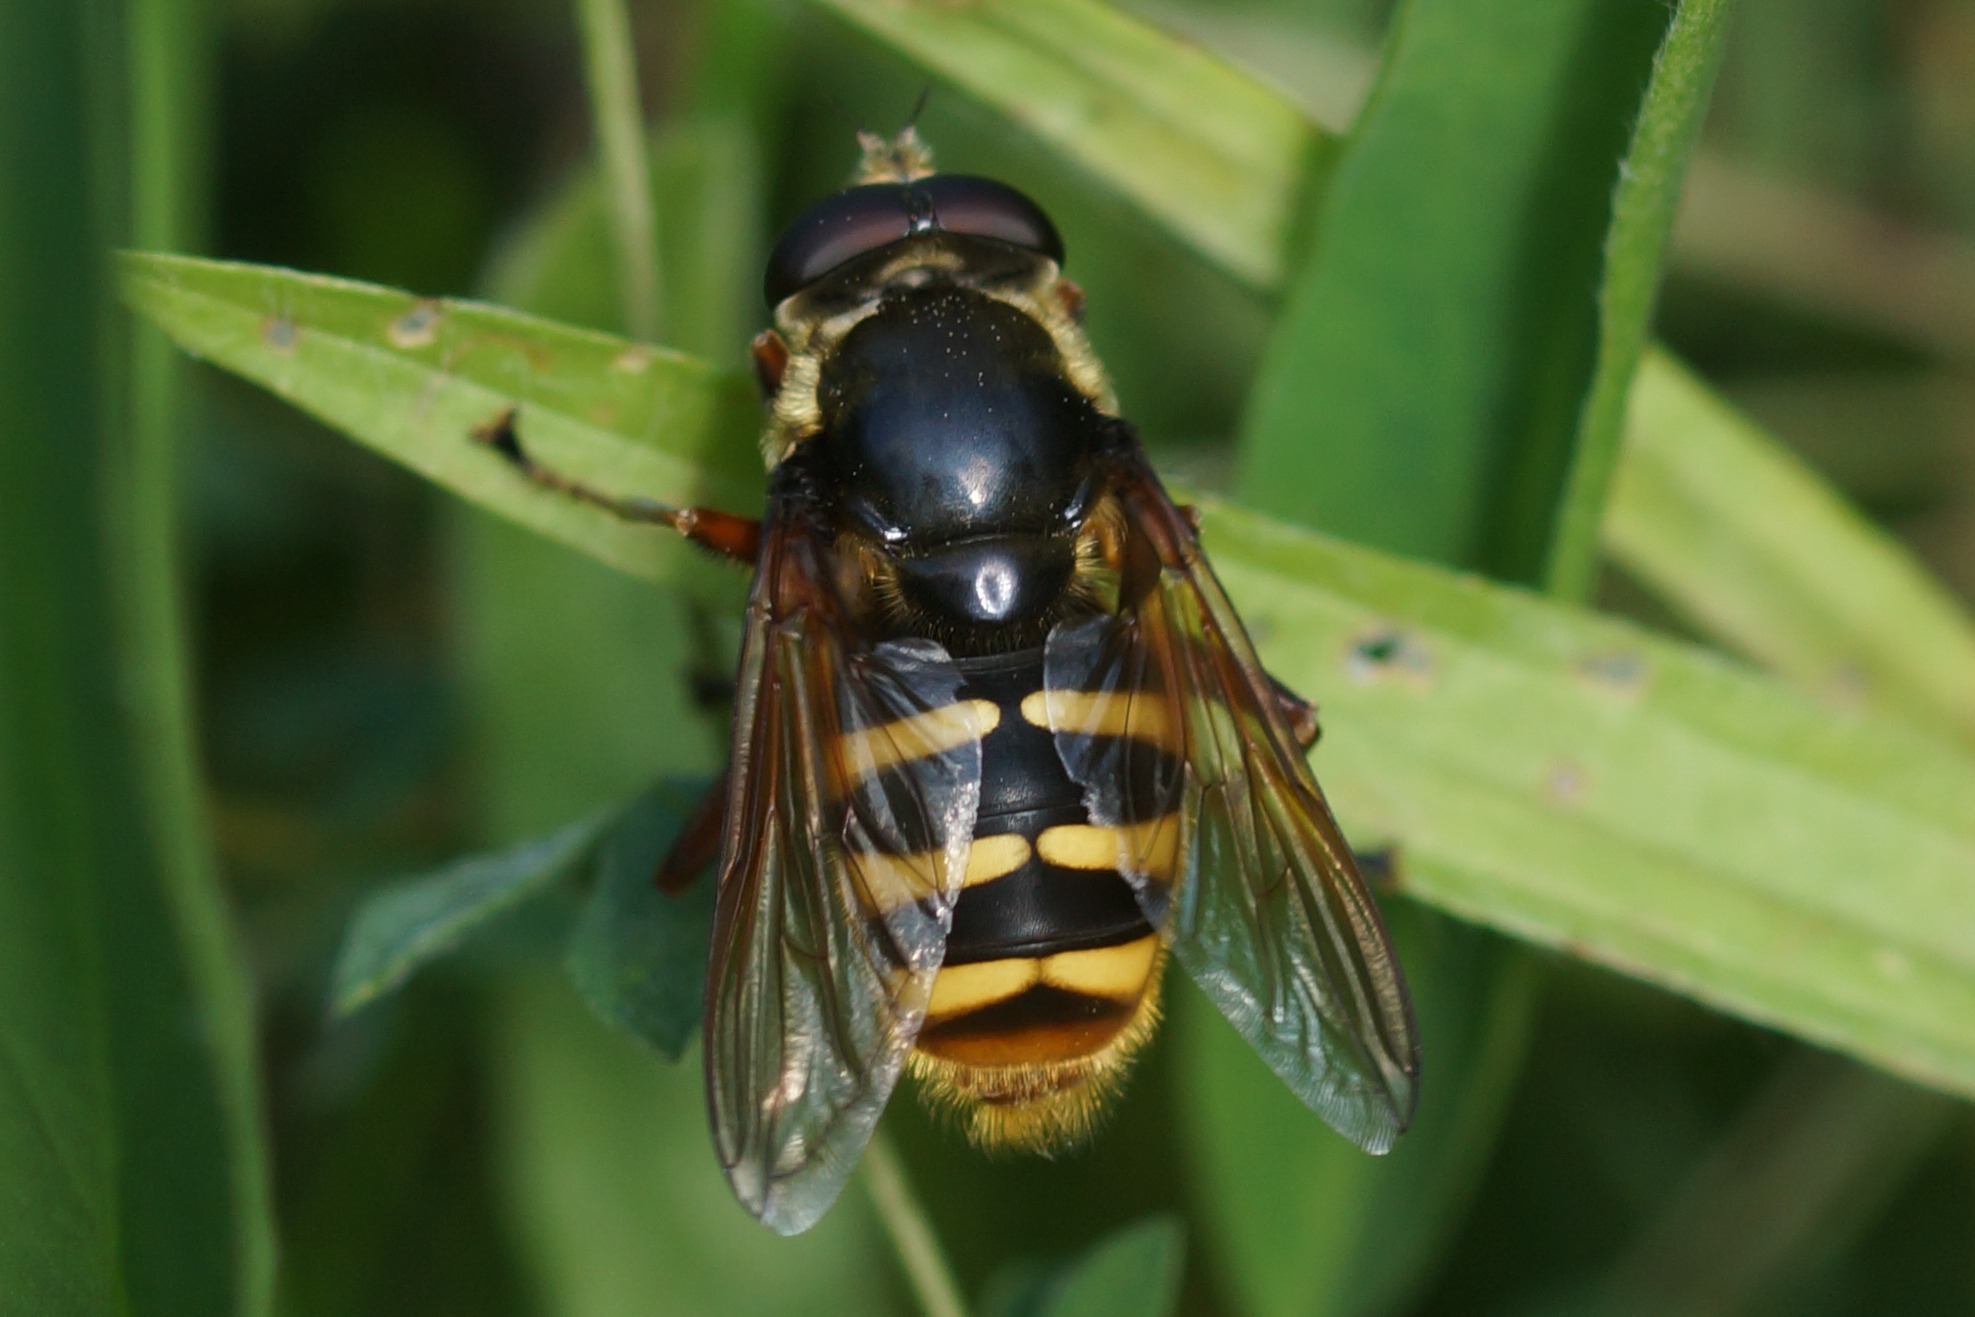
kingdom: Animalia
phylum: Arthropoda
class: Insecta
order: Diptera
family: Syrphidae
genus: Sericomyia
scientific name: Sericomyia silentis
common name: Tørve-silkesvirreflue
